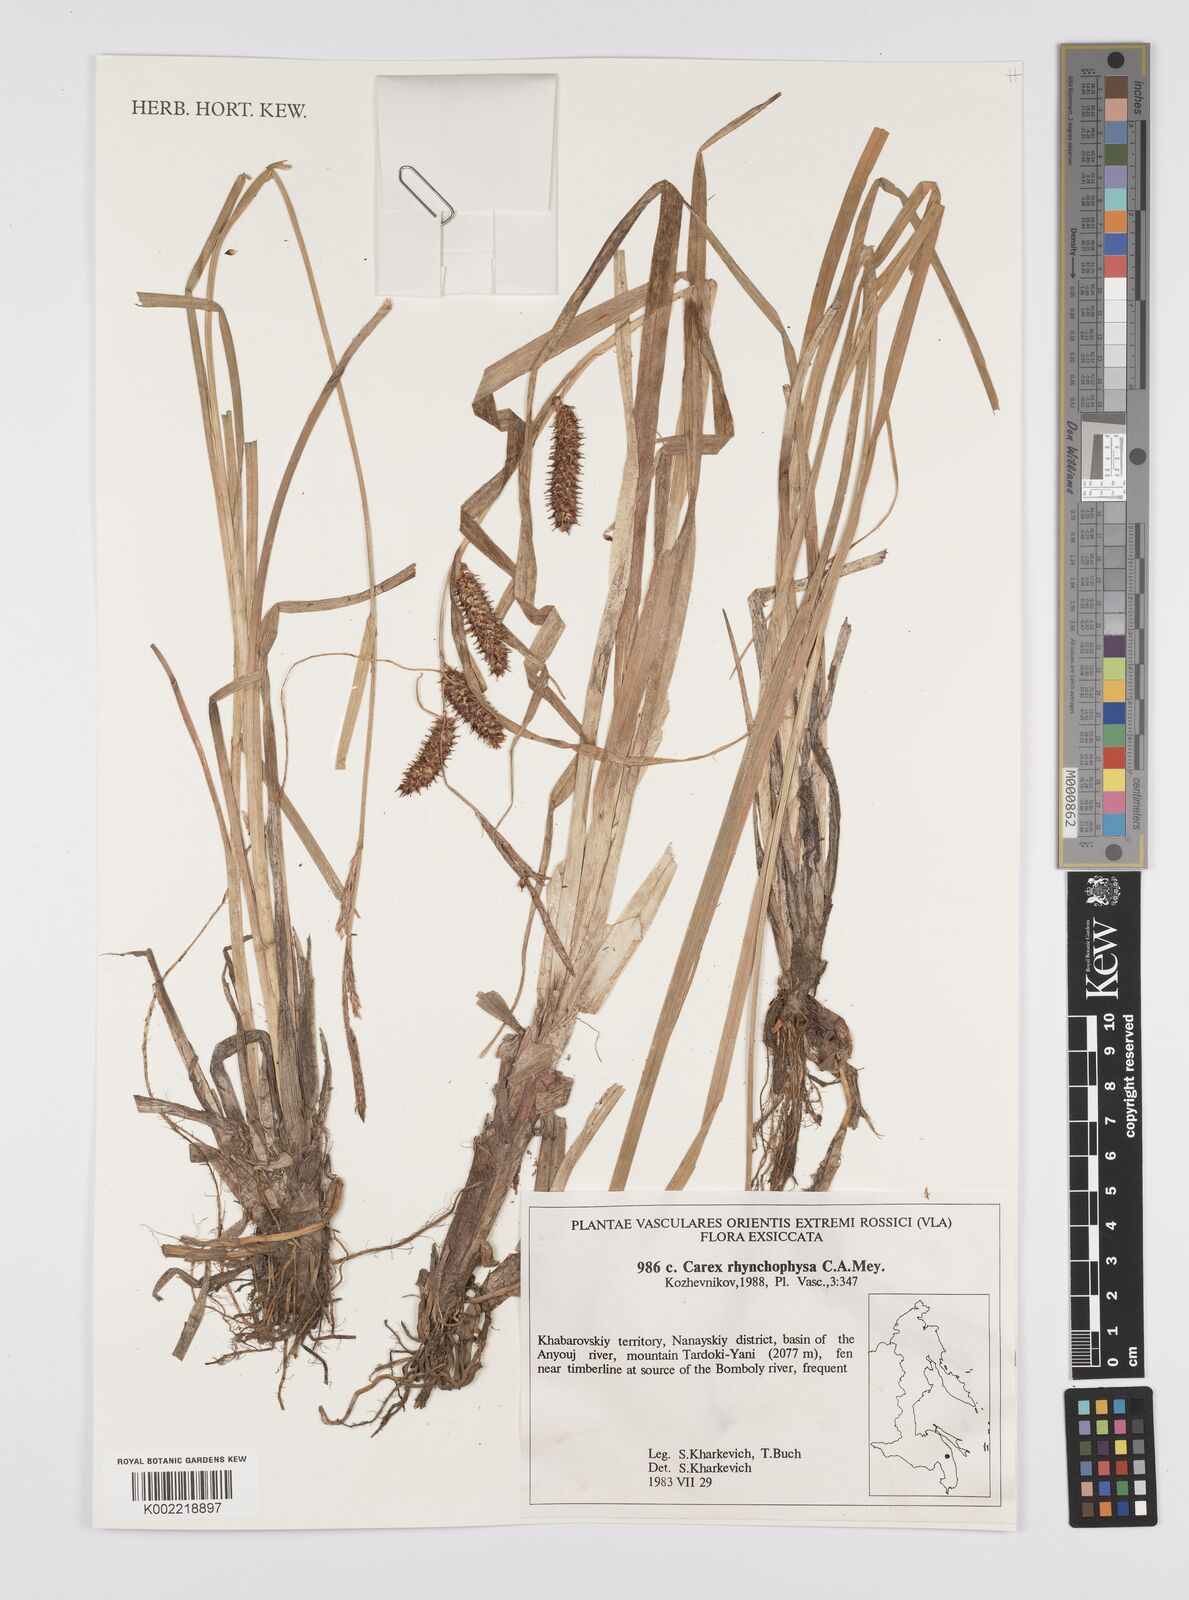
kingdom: Plantae
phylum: Tracheophyta
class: Liliopsida
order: Poales
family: Cyperaceae
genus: Carex
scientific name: Carex utriculata
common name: Beaked sedge
